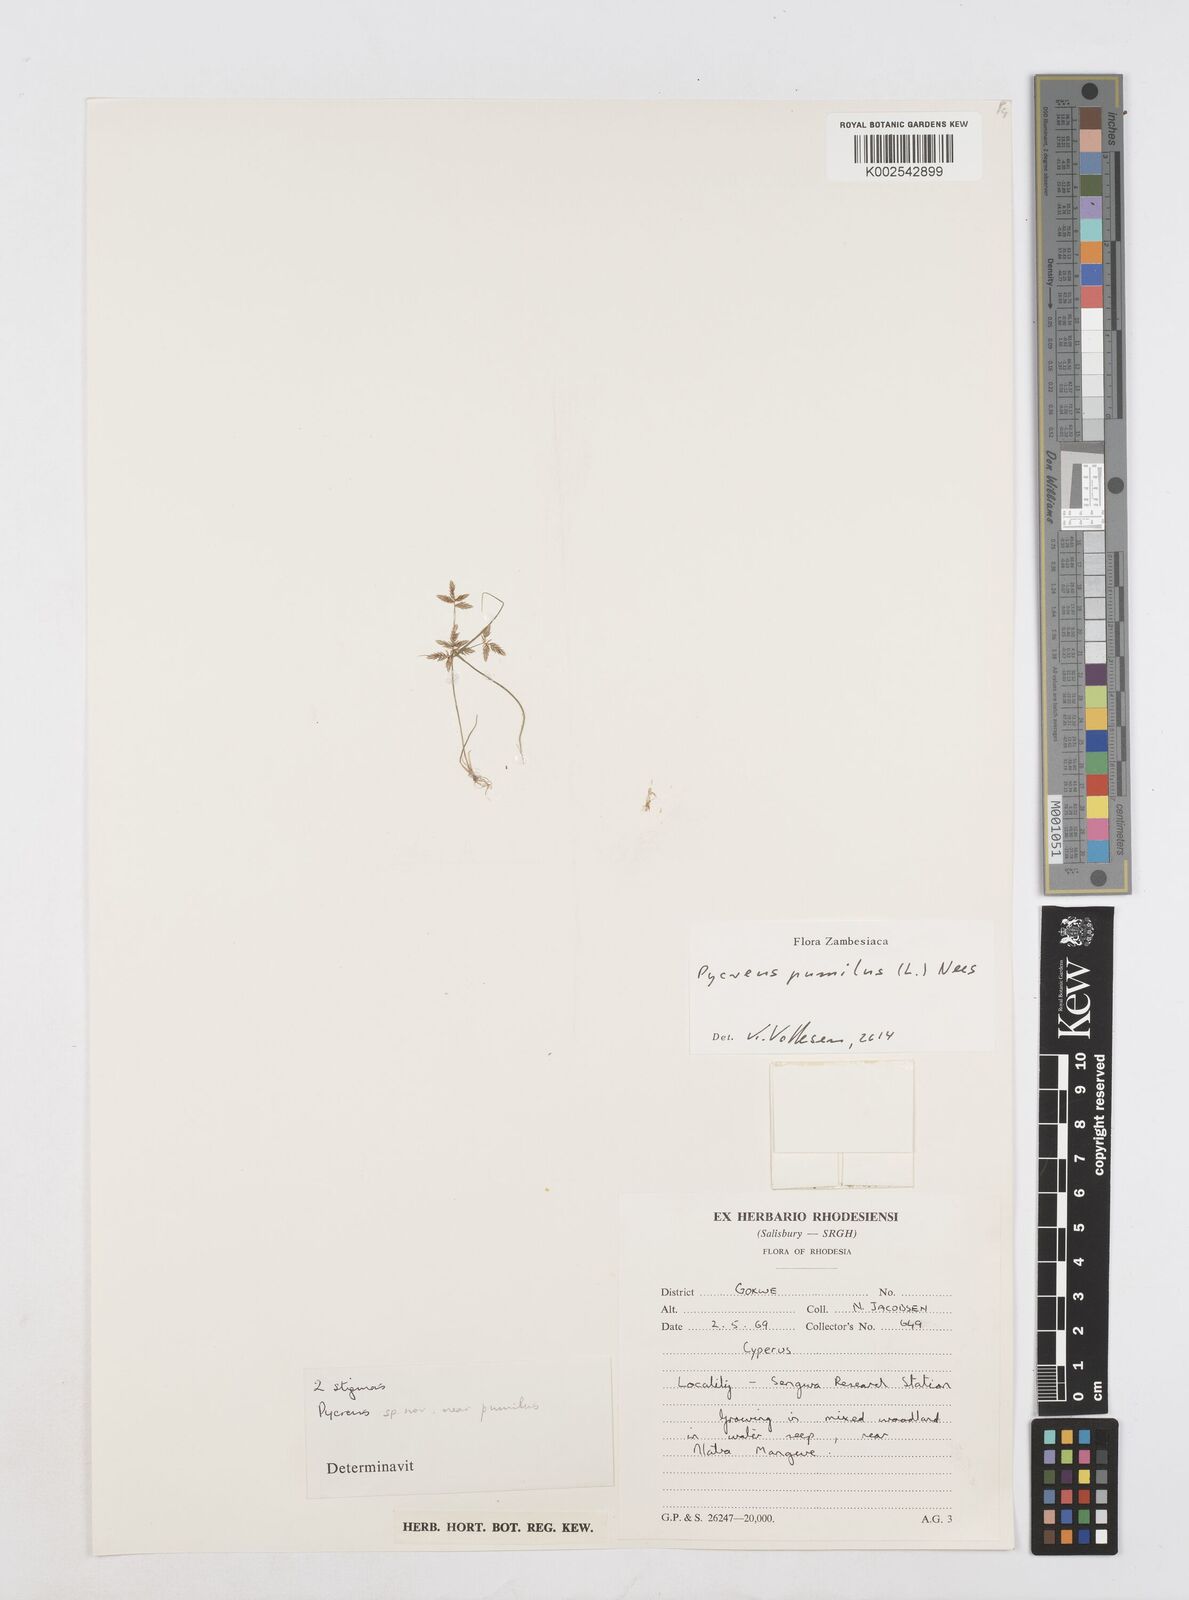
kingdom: Plantae
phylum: Tracheophyta
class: Liliopsida
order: Poales
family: Cyperaceae
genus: Cyperus
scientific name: Cyperus pumilus
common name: Low flatsedge
